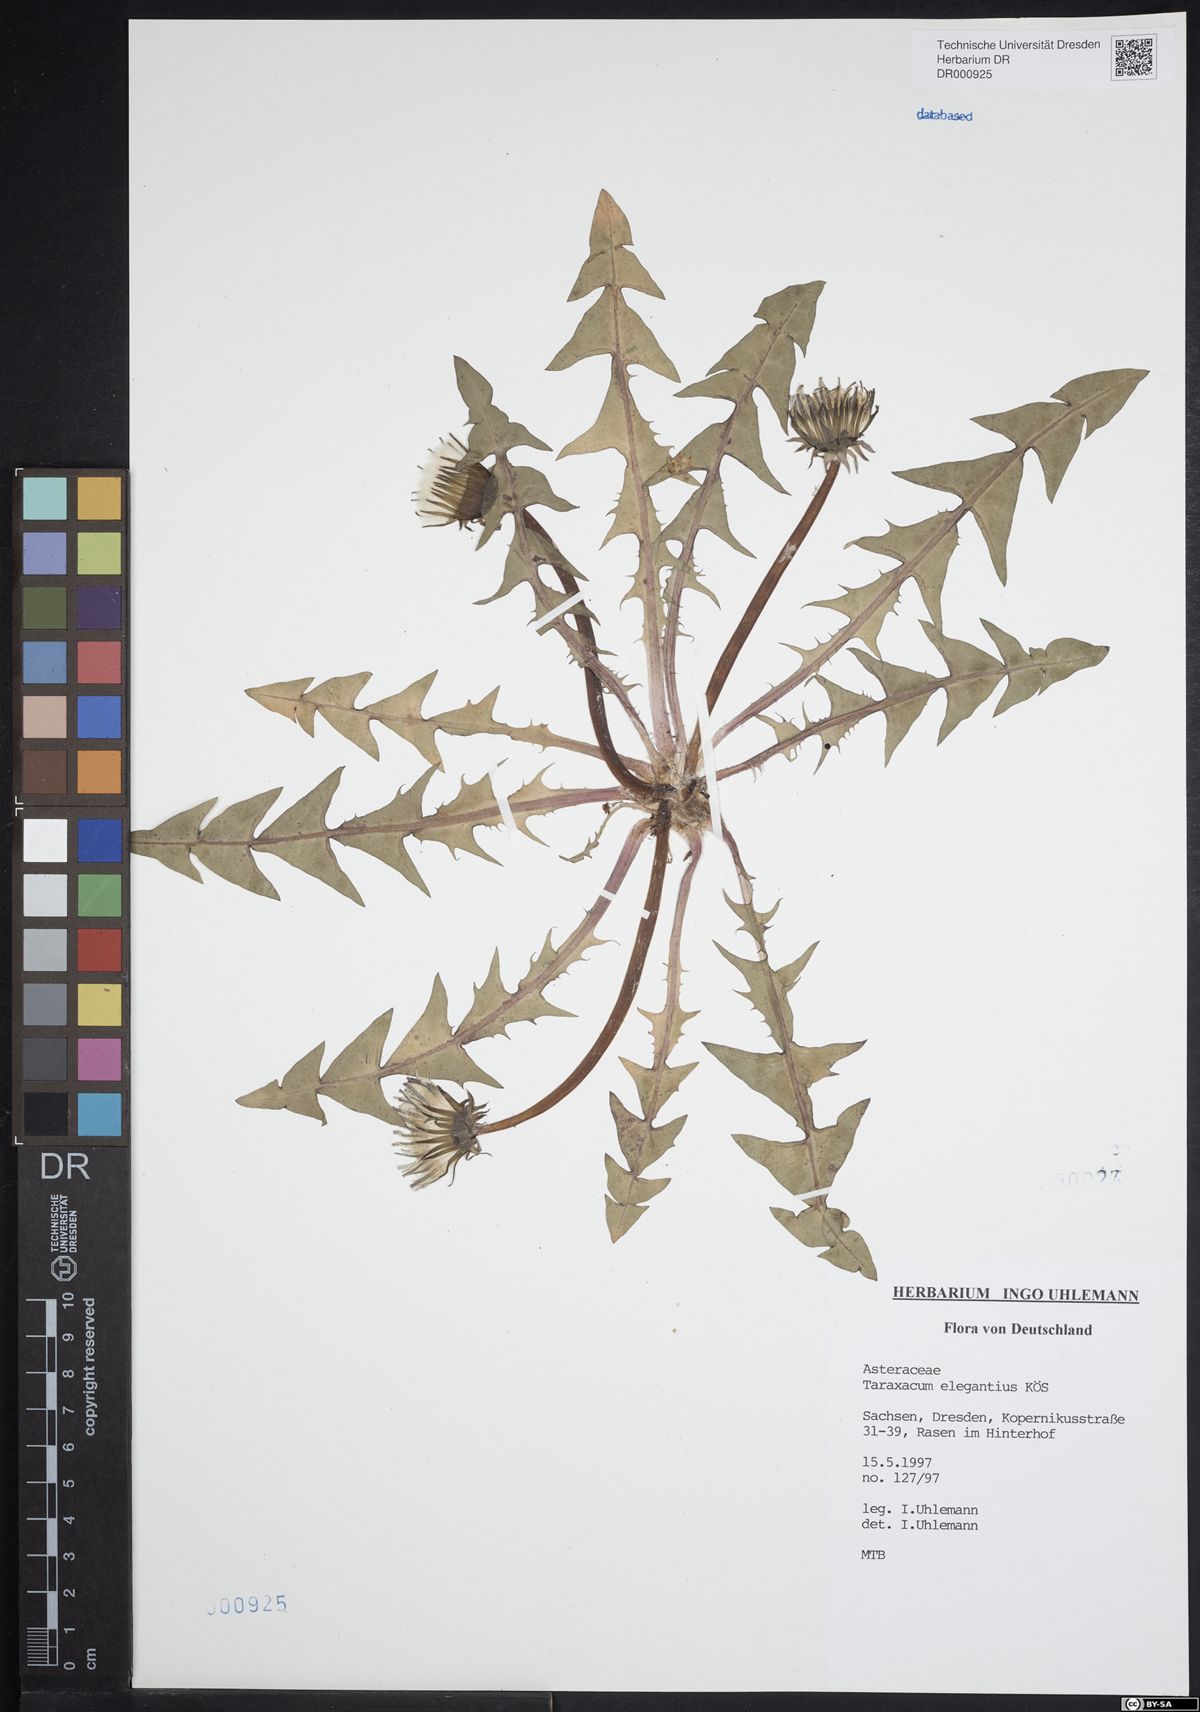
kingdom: Plantae
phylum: Tracheophyta
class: Magnoliopsida
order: Asterales
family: Asteraceae
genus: Taraxacum
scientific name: Taraxacum elegantius
